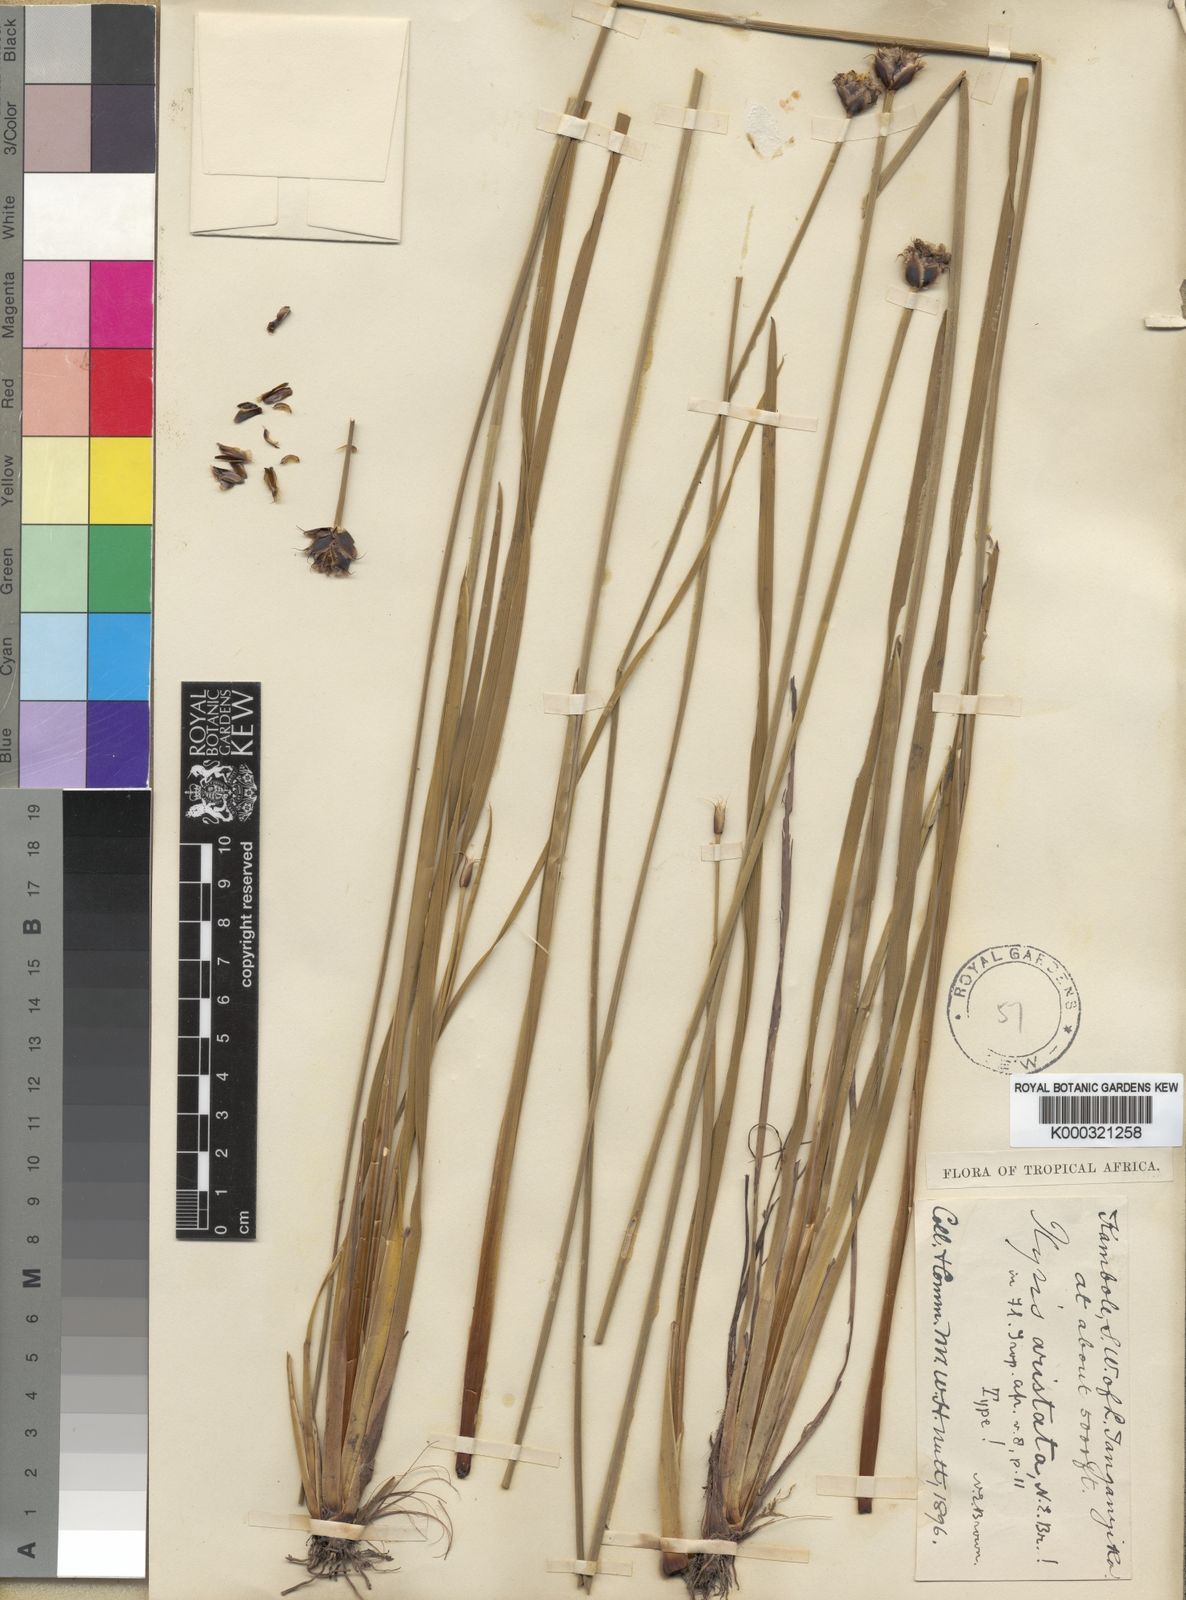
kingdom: Plantae
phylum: Tracheophyta
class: Liliopsida
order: Poales
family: Xyridaceae
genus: Xyris
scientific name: Xyris aristata
